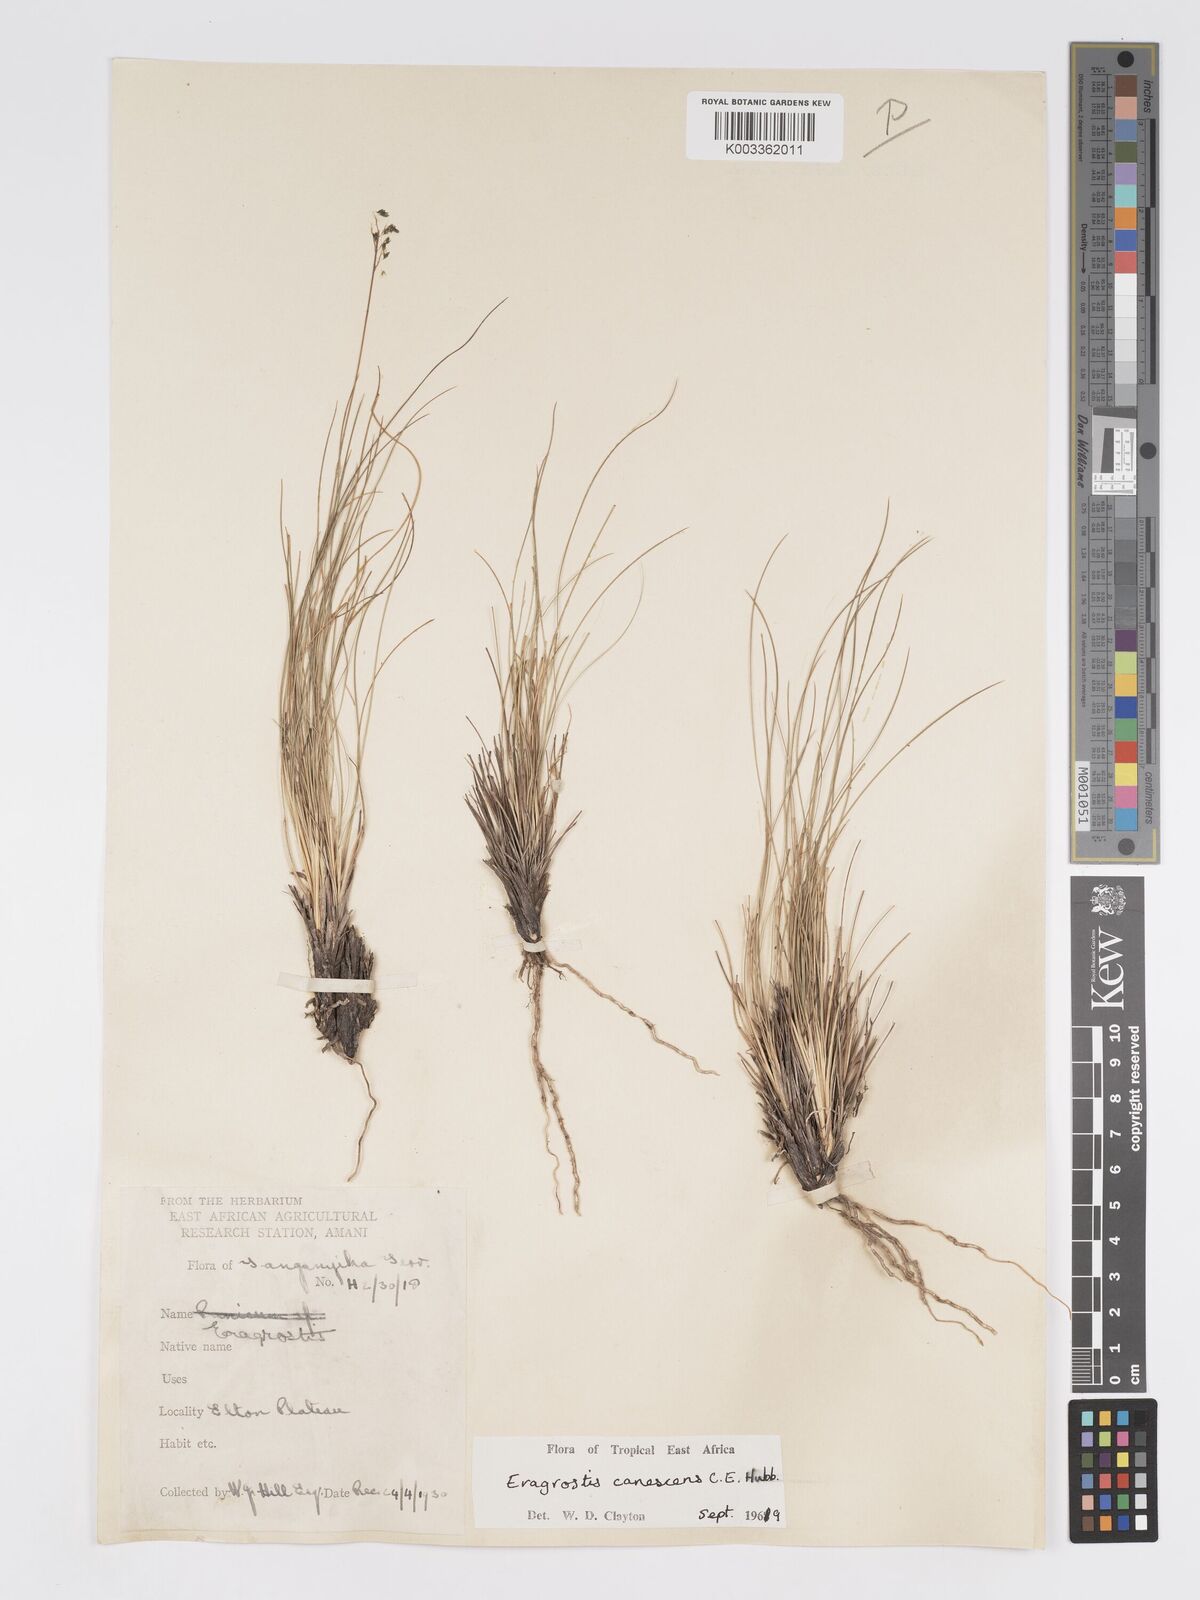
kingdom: Plantae
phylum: Tracheophyta
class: Liliopsida
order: Poales
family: Poaceae
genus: Eragrostis
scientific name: Eragrostis canescens
